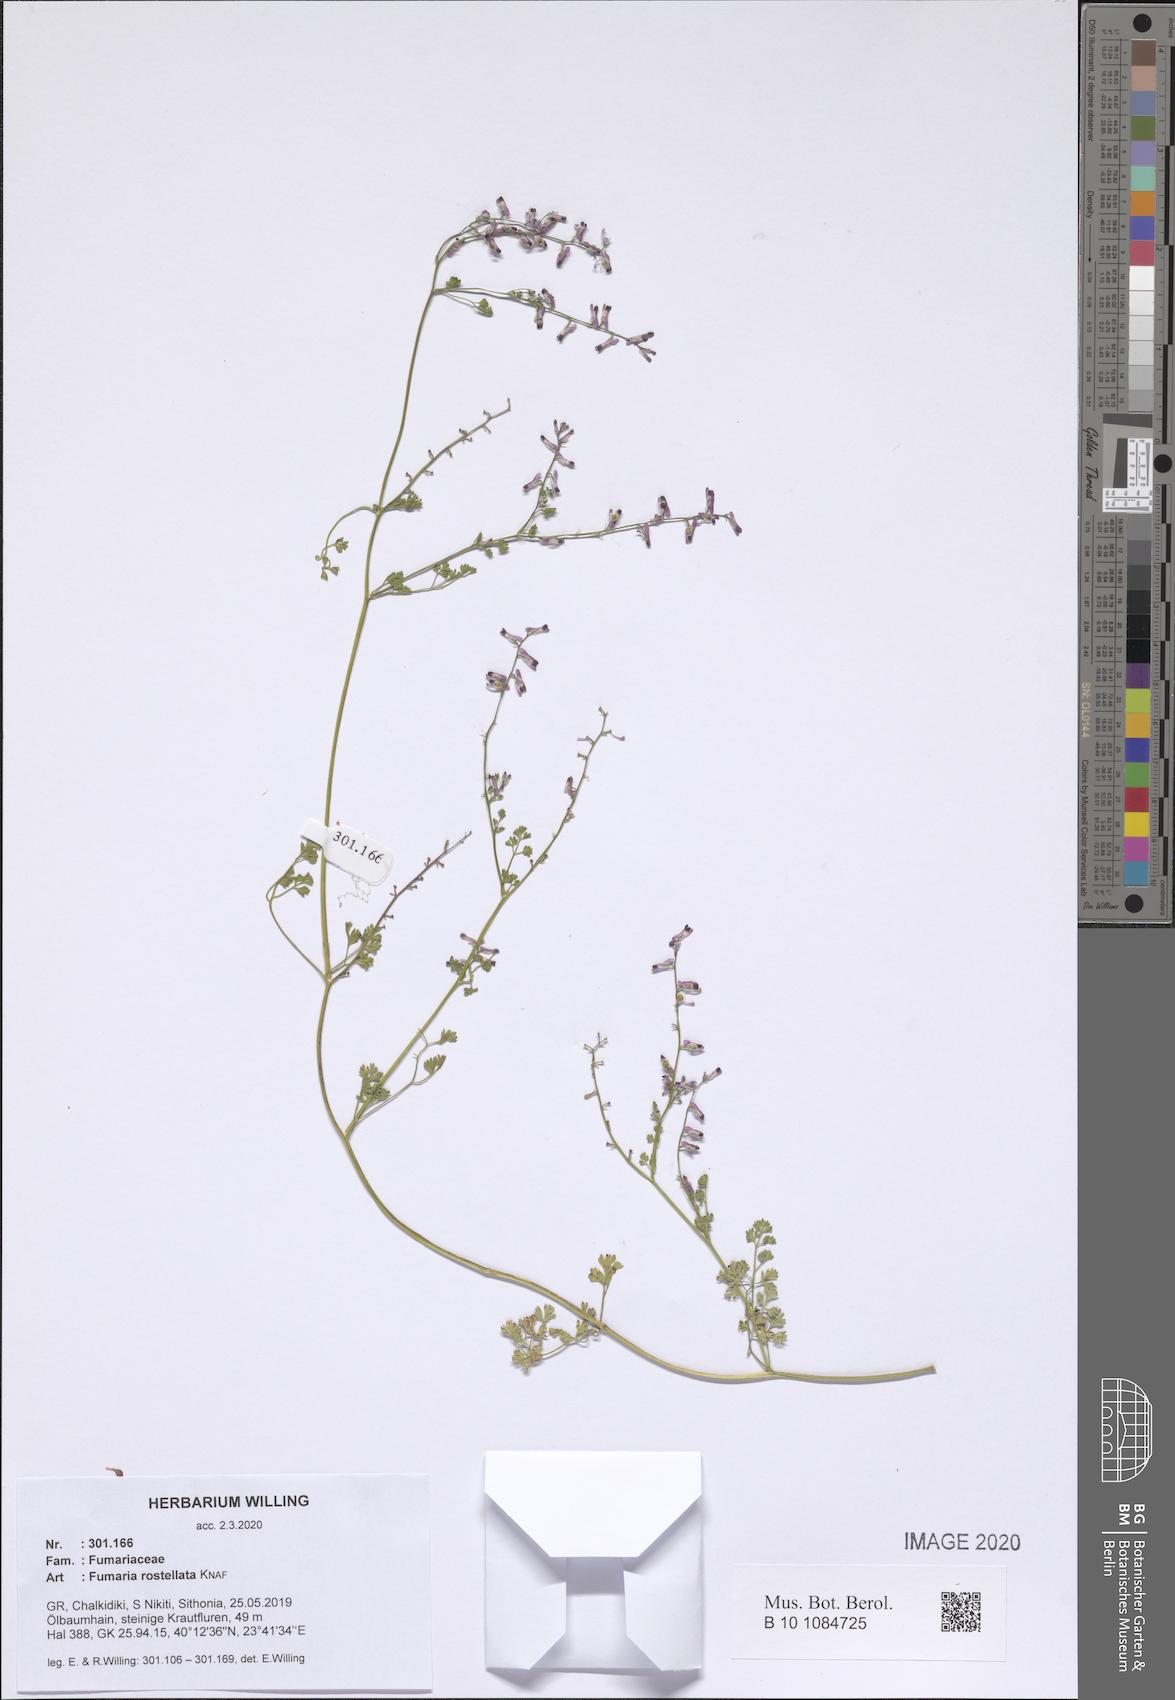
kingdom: Plantae
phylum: Tracheophyta
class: Magnoliopsida
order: Ranunculales
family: Papaveraceae
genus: Fumaria
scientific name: Fumaria rostellata
